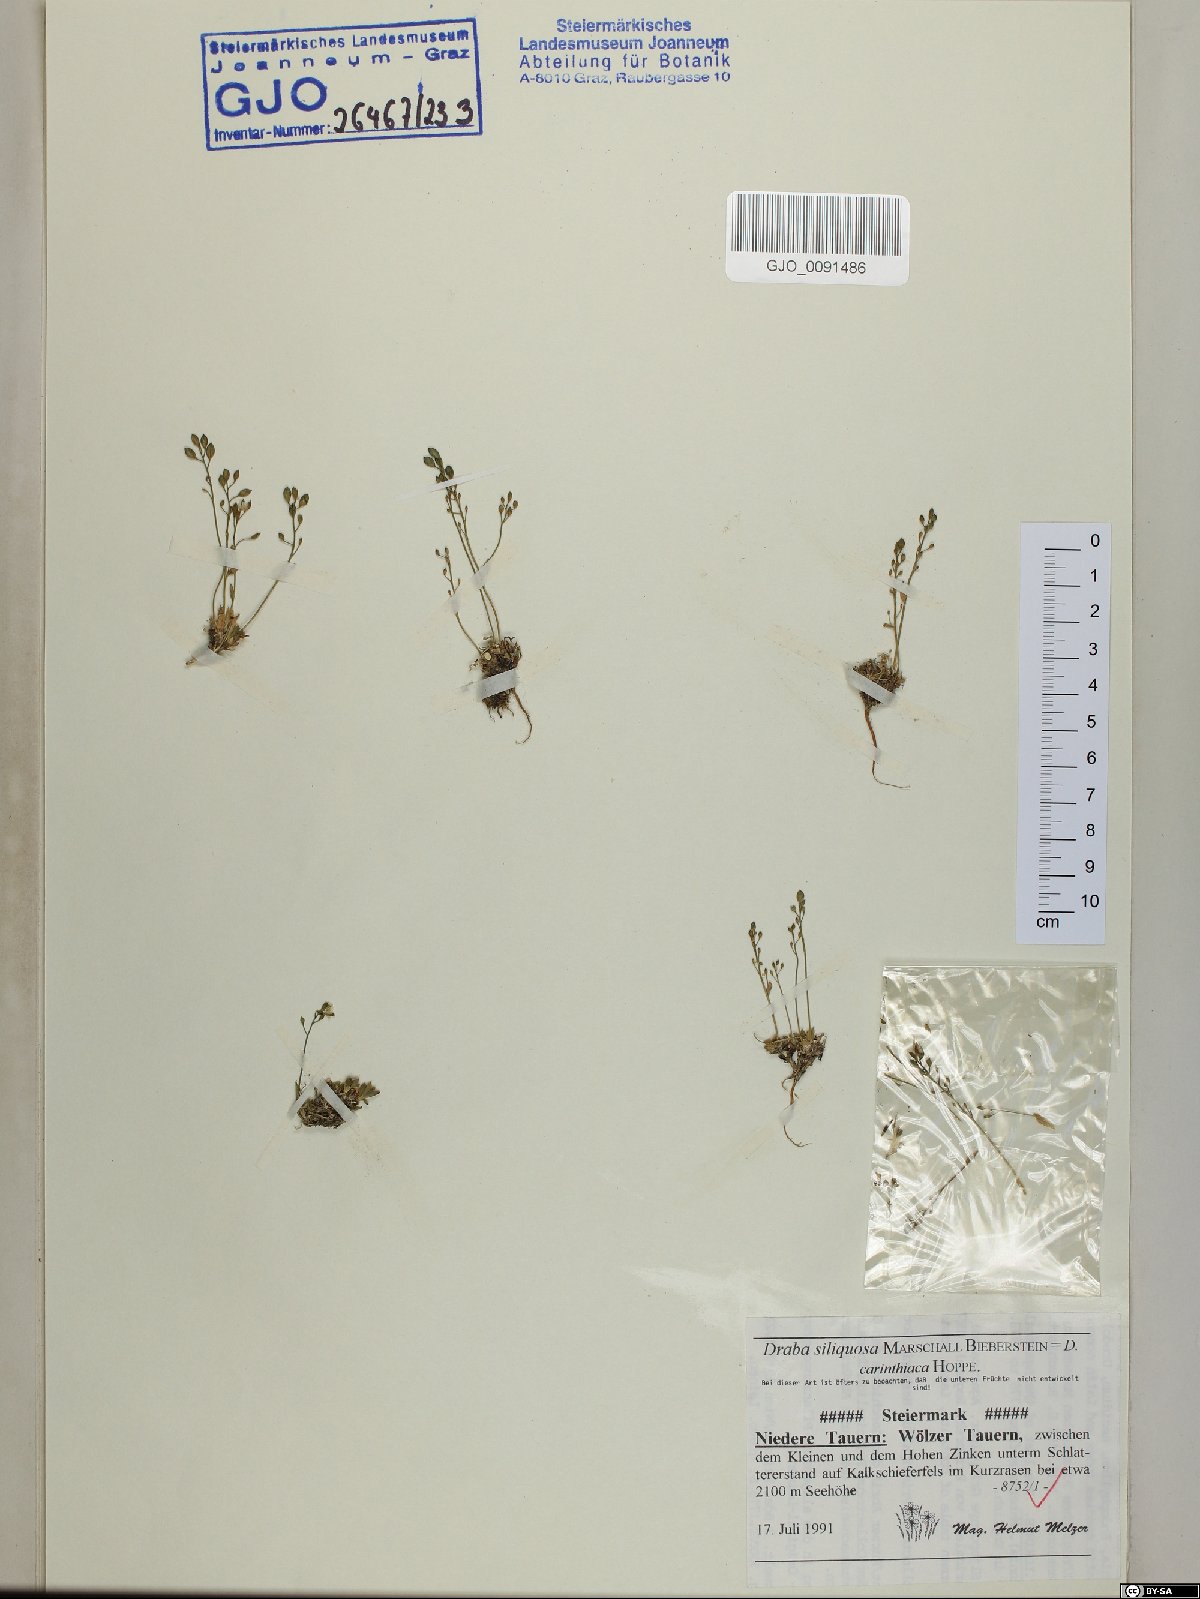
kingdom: Plantae
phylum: Tracheophyta
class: Magnoliopsida
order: Brassicales
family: Brassicaceae
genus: Draba
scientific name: Draba siliquosa
